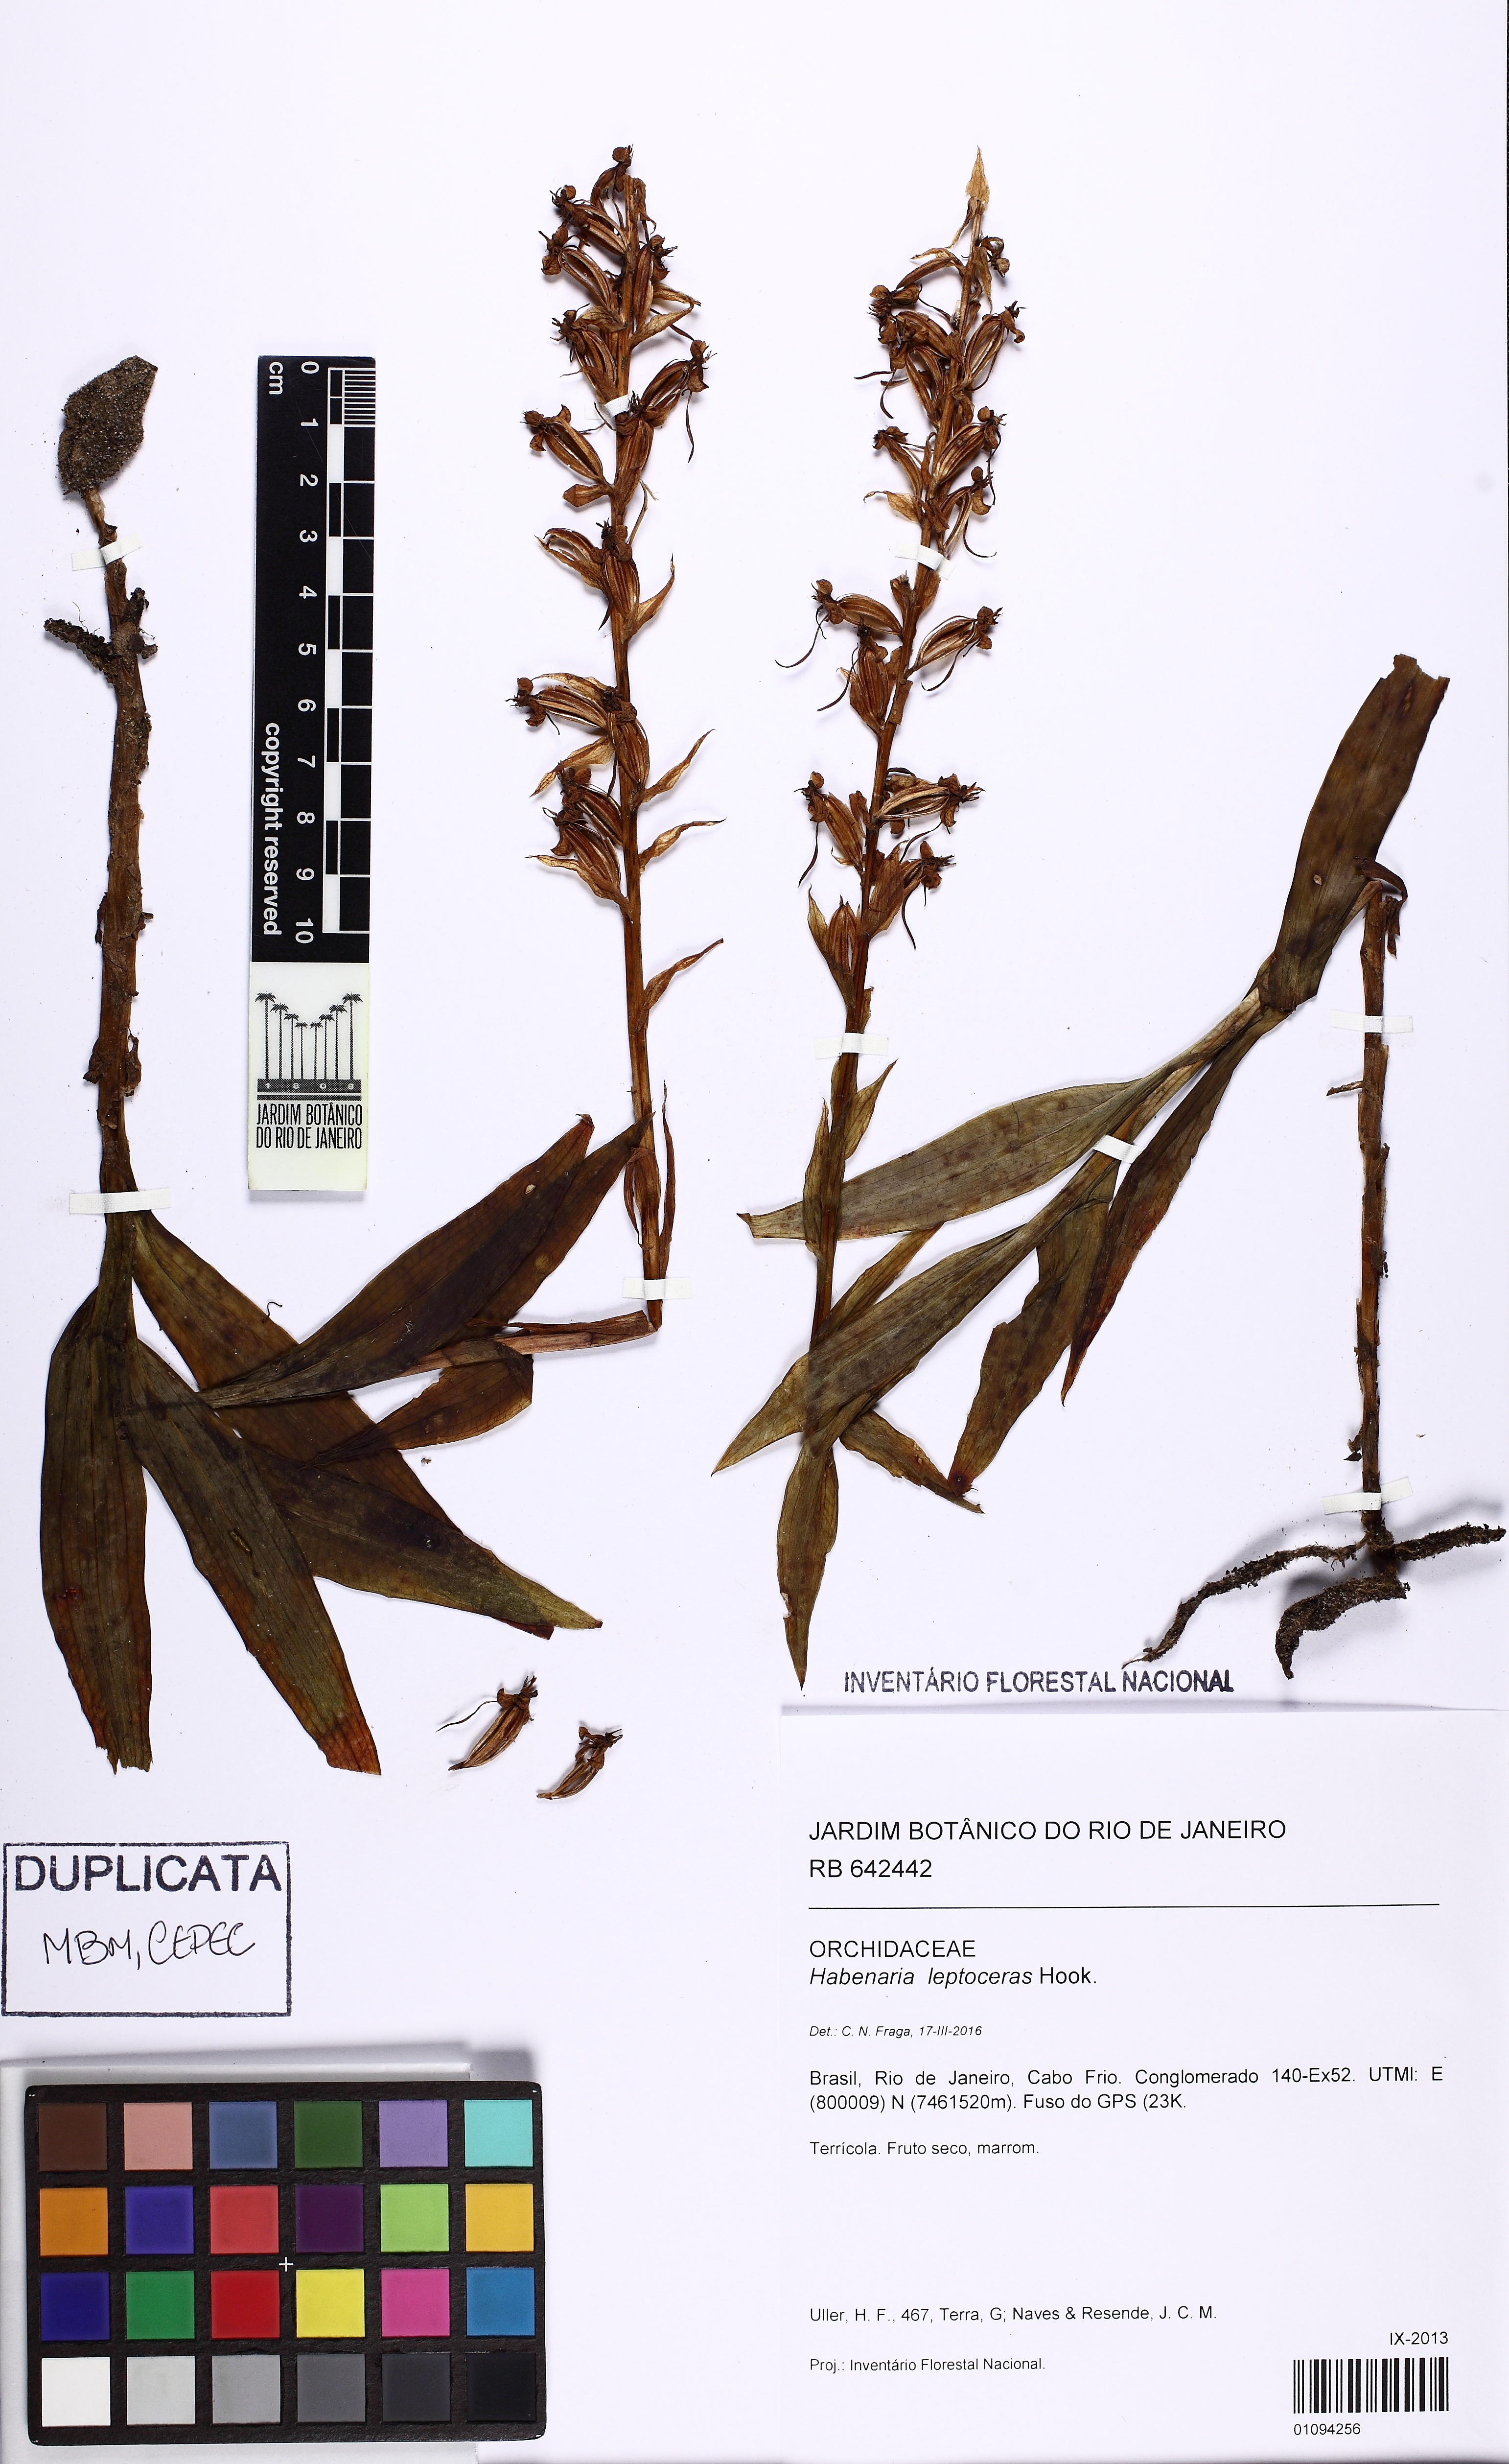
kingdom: Plantae
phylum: Tracheophyta
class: Liliopsida
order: Asparagales
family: Orchidaceae
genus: Habenaria
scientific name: Habenaria leptoceras
